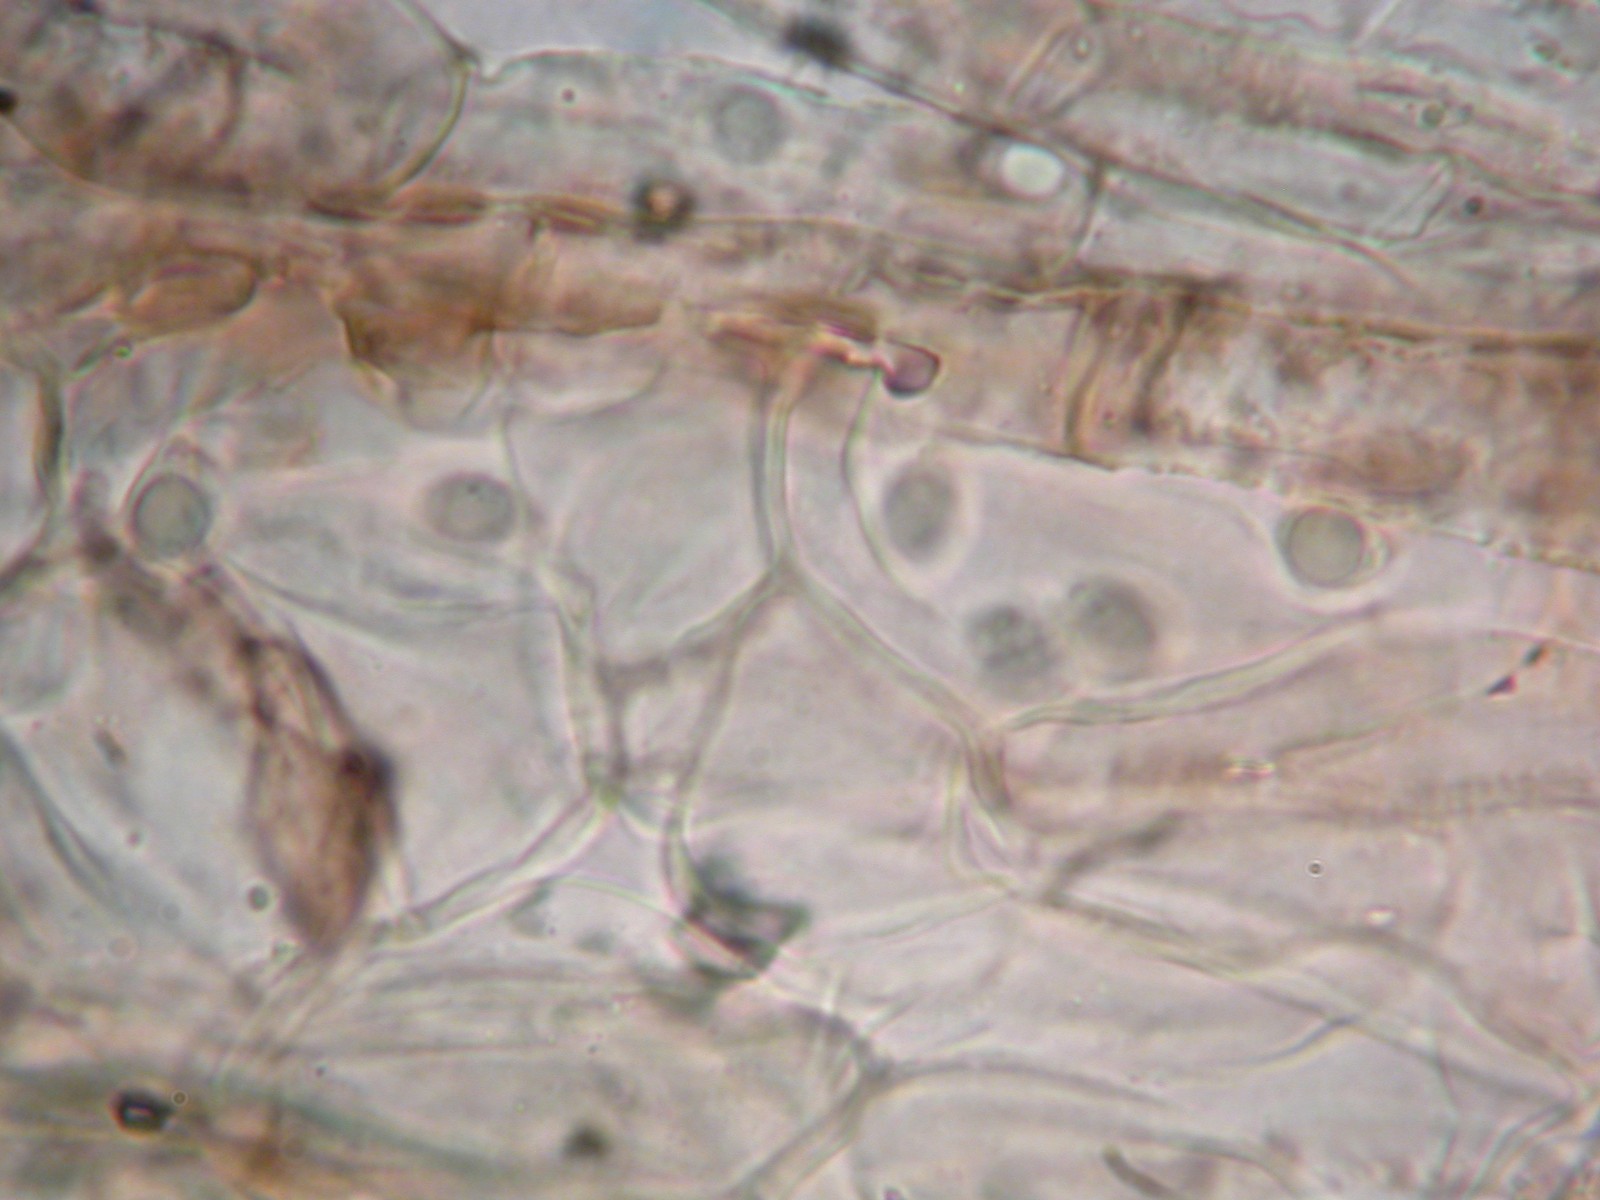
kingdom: Fungi
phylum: Basidiomycota
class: Agaricomycetes
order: Agaricales
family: Tricholomataceae
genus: Tricholoma
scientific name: Tricholoma triste
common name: trist ridderhat
